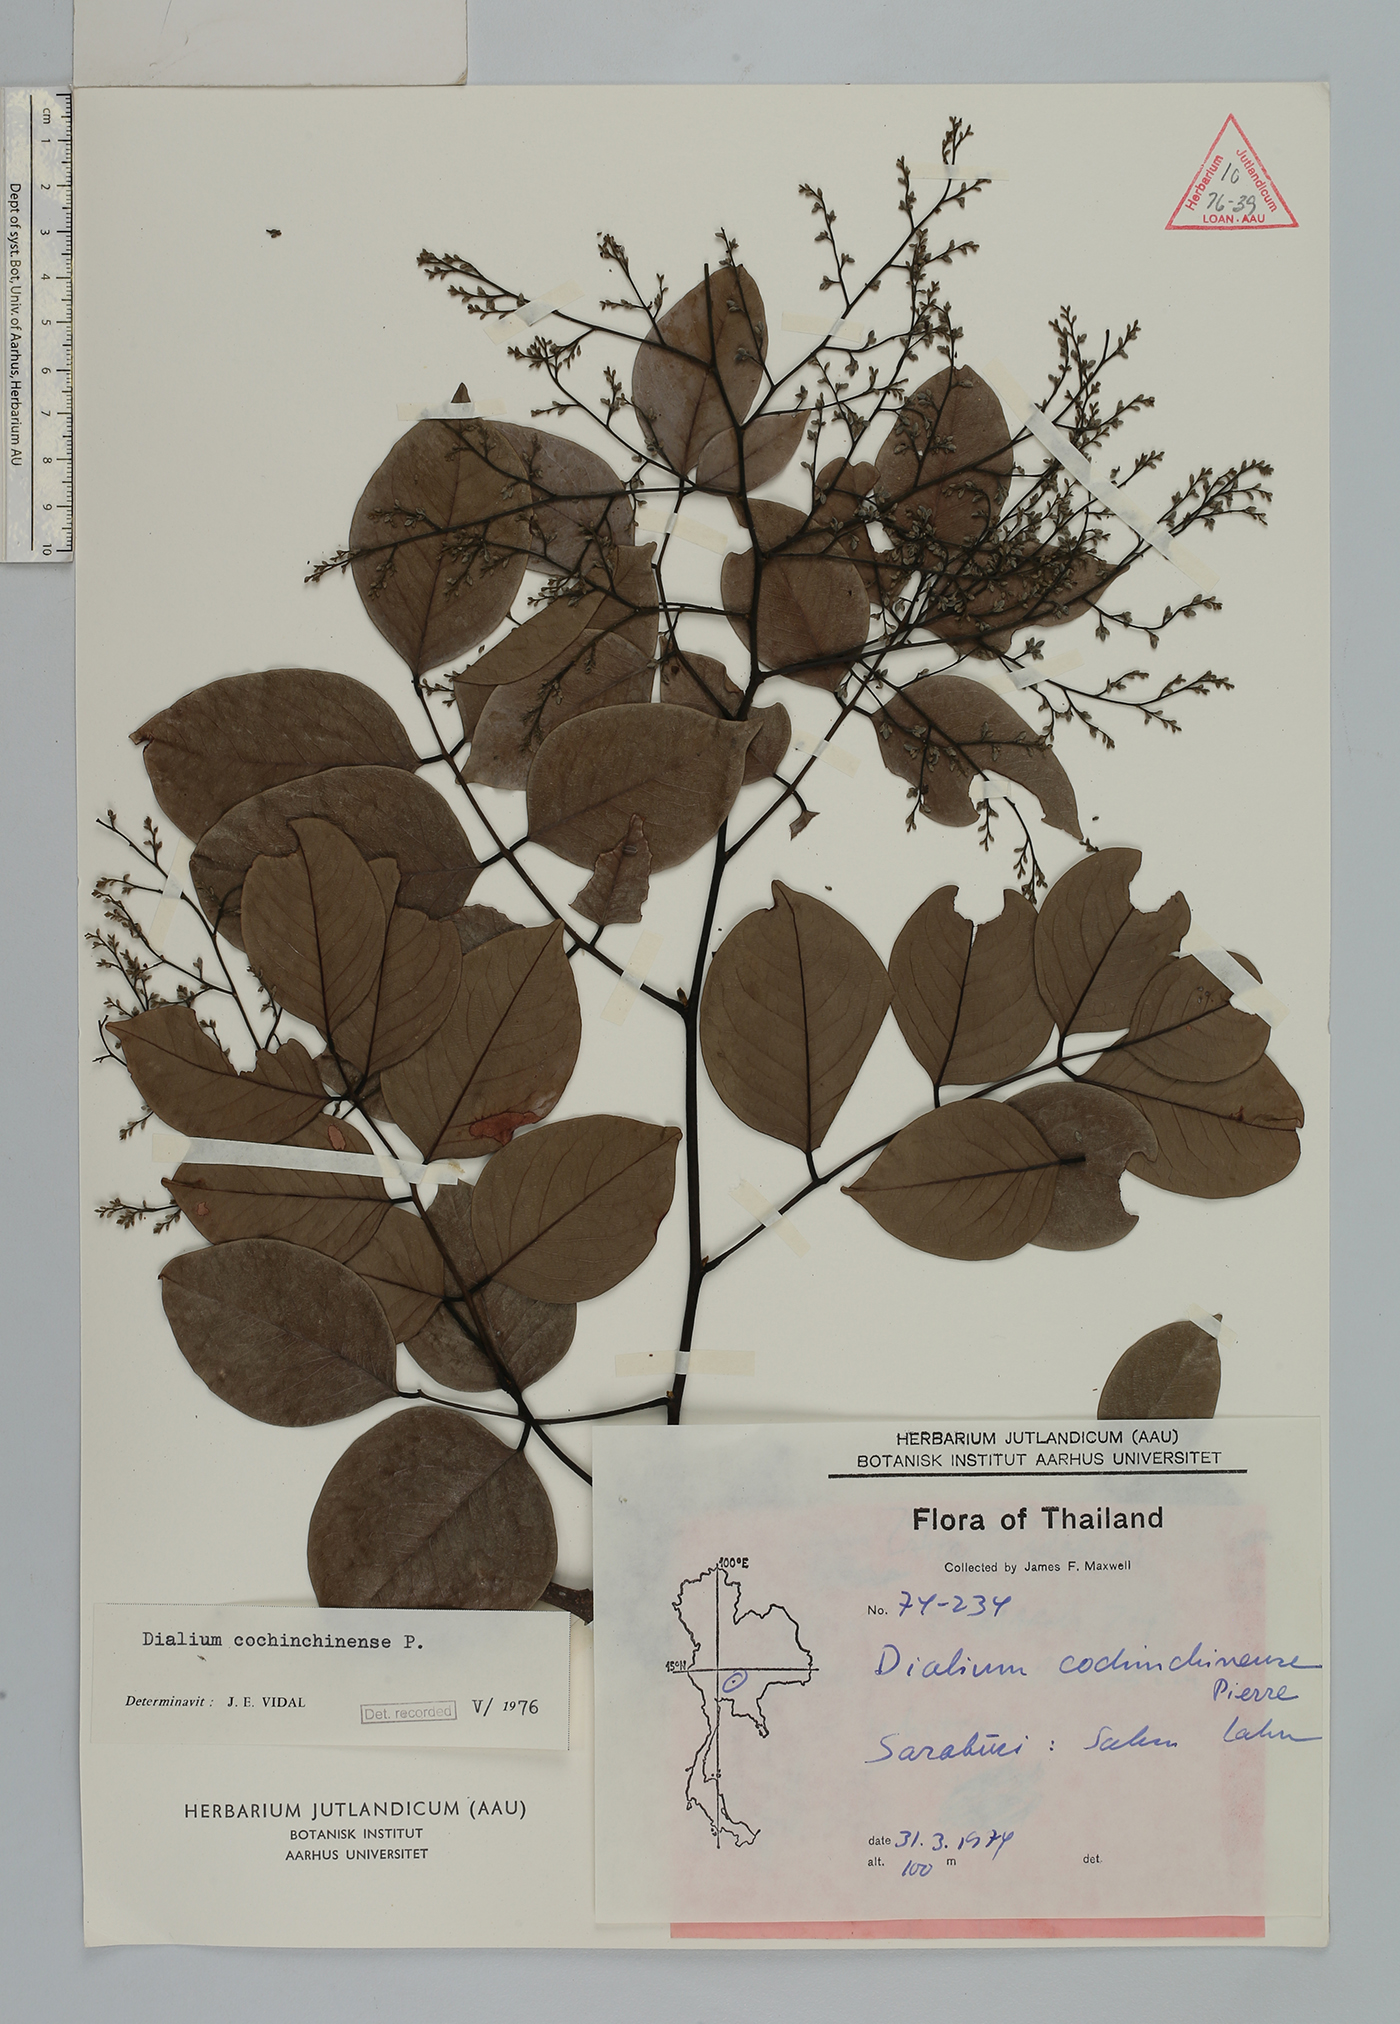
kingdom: Plantae
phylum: Tracheophyta
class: Magnoliopsida
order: Fabales
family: Fabaceae
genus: Dialium
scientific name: Dialium cochinchinense
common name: Velvet tamarind
